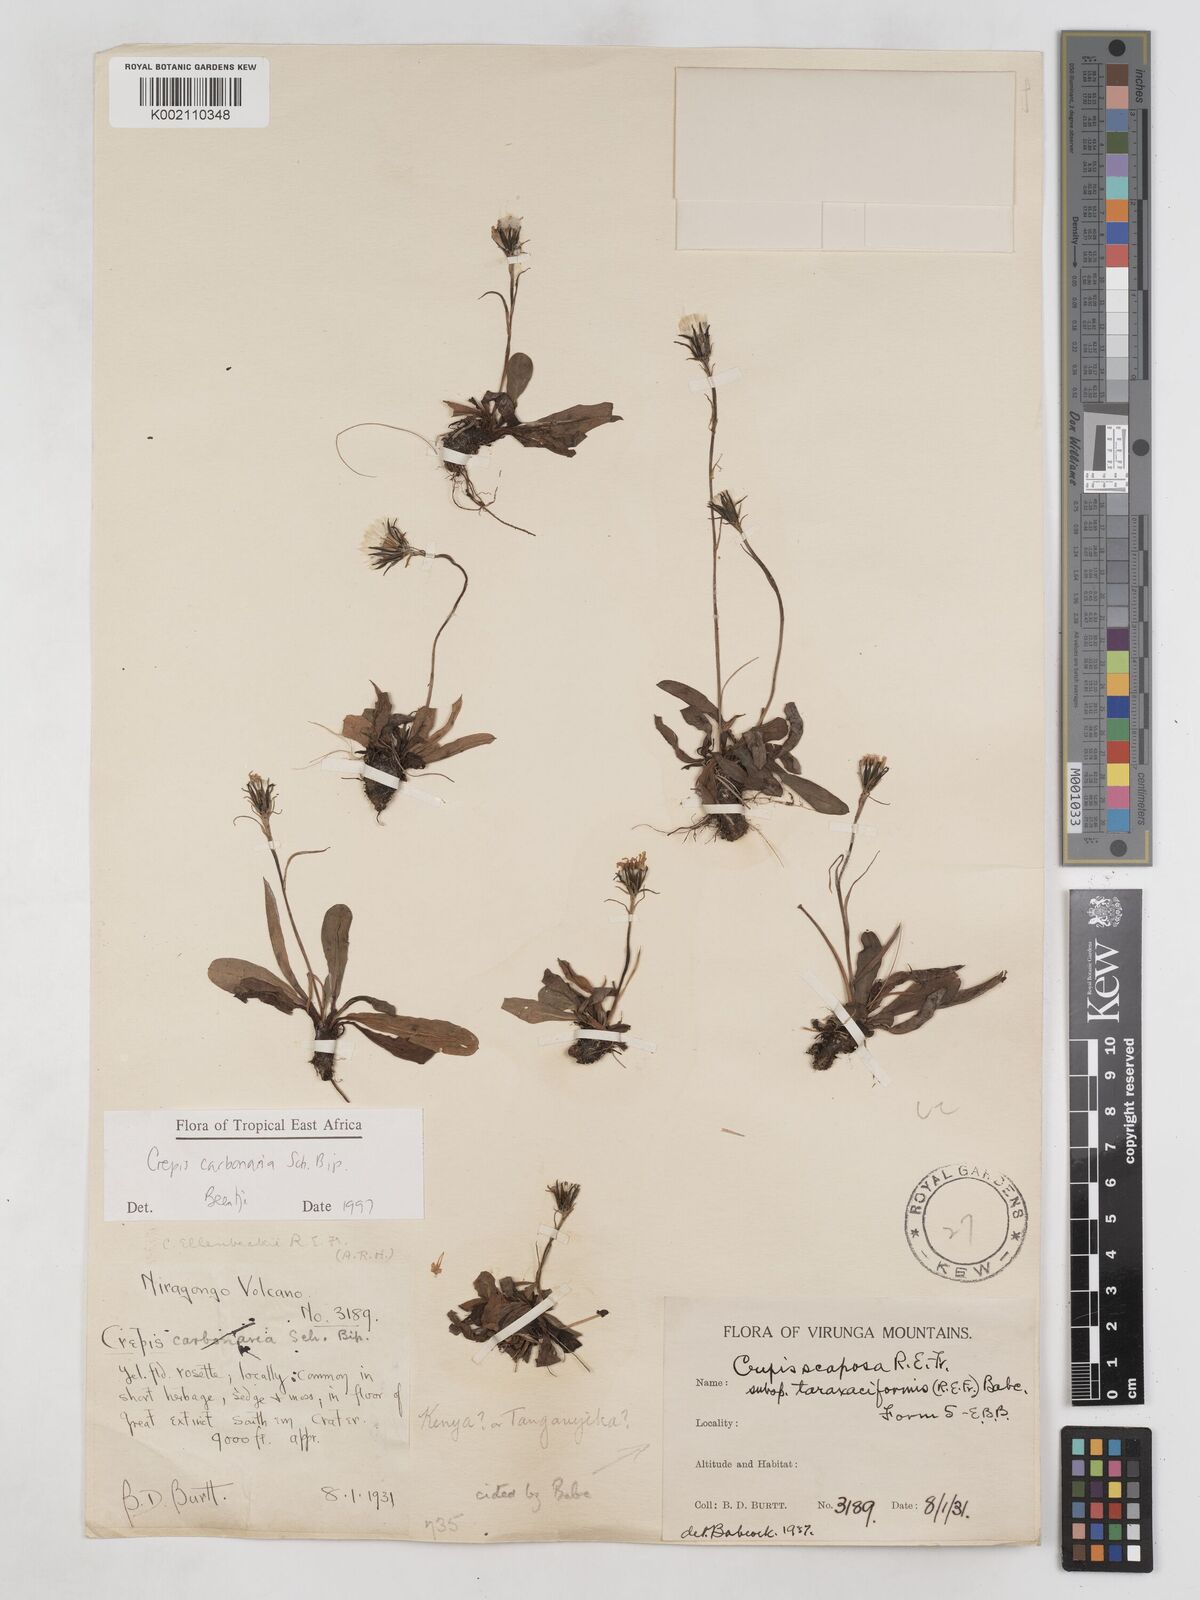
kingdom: Plantae
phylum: Tracheophyta
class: Magnoliopsida
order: Asterales
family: Asteraceae
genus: Crepis
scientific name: Crepis carbonaria
